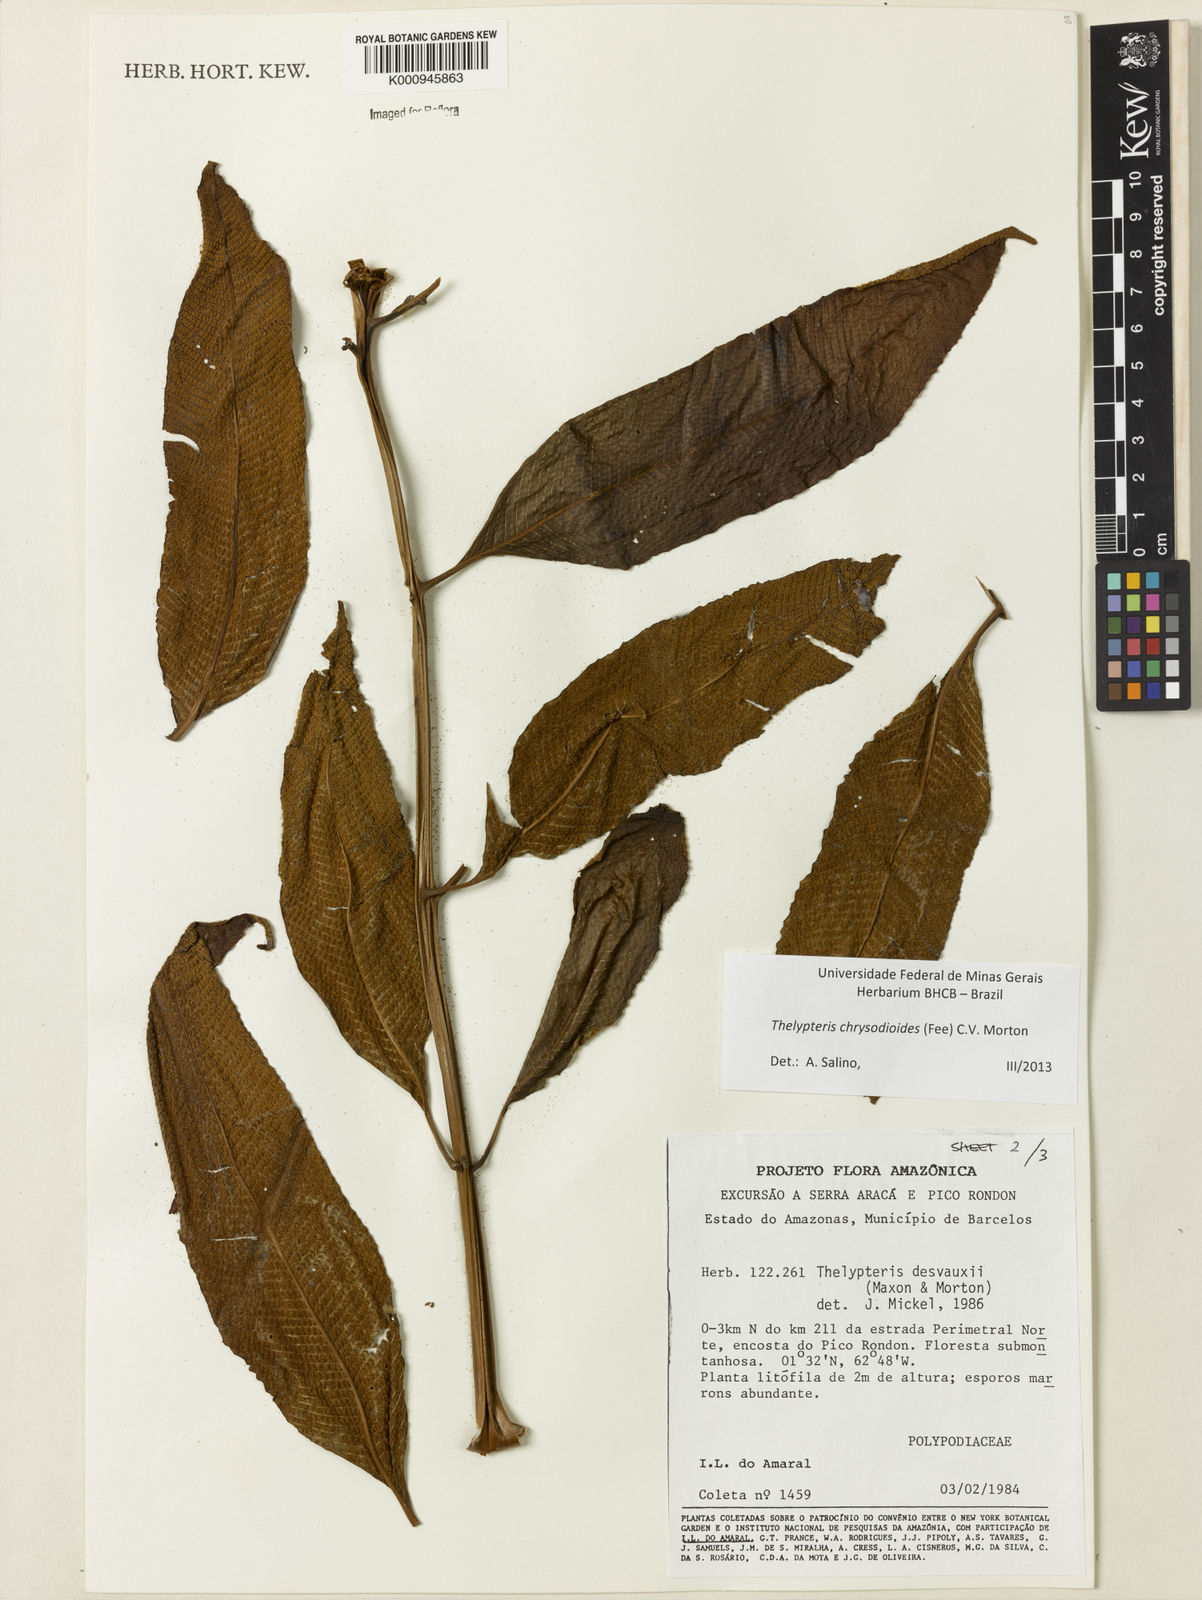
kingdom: Plantae
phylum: Tracheophyta
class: Polypodiopsida
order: Polypodiales
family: Thelypteridaceae
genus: Meniscium
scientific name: Meniscium
